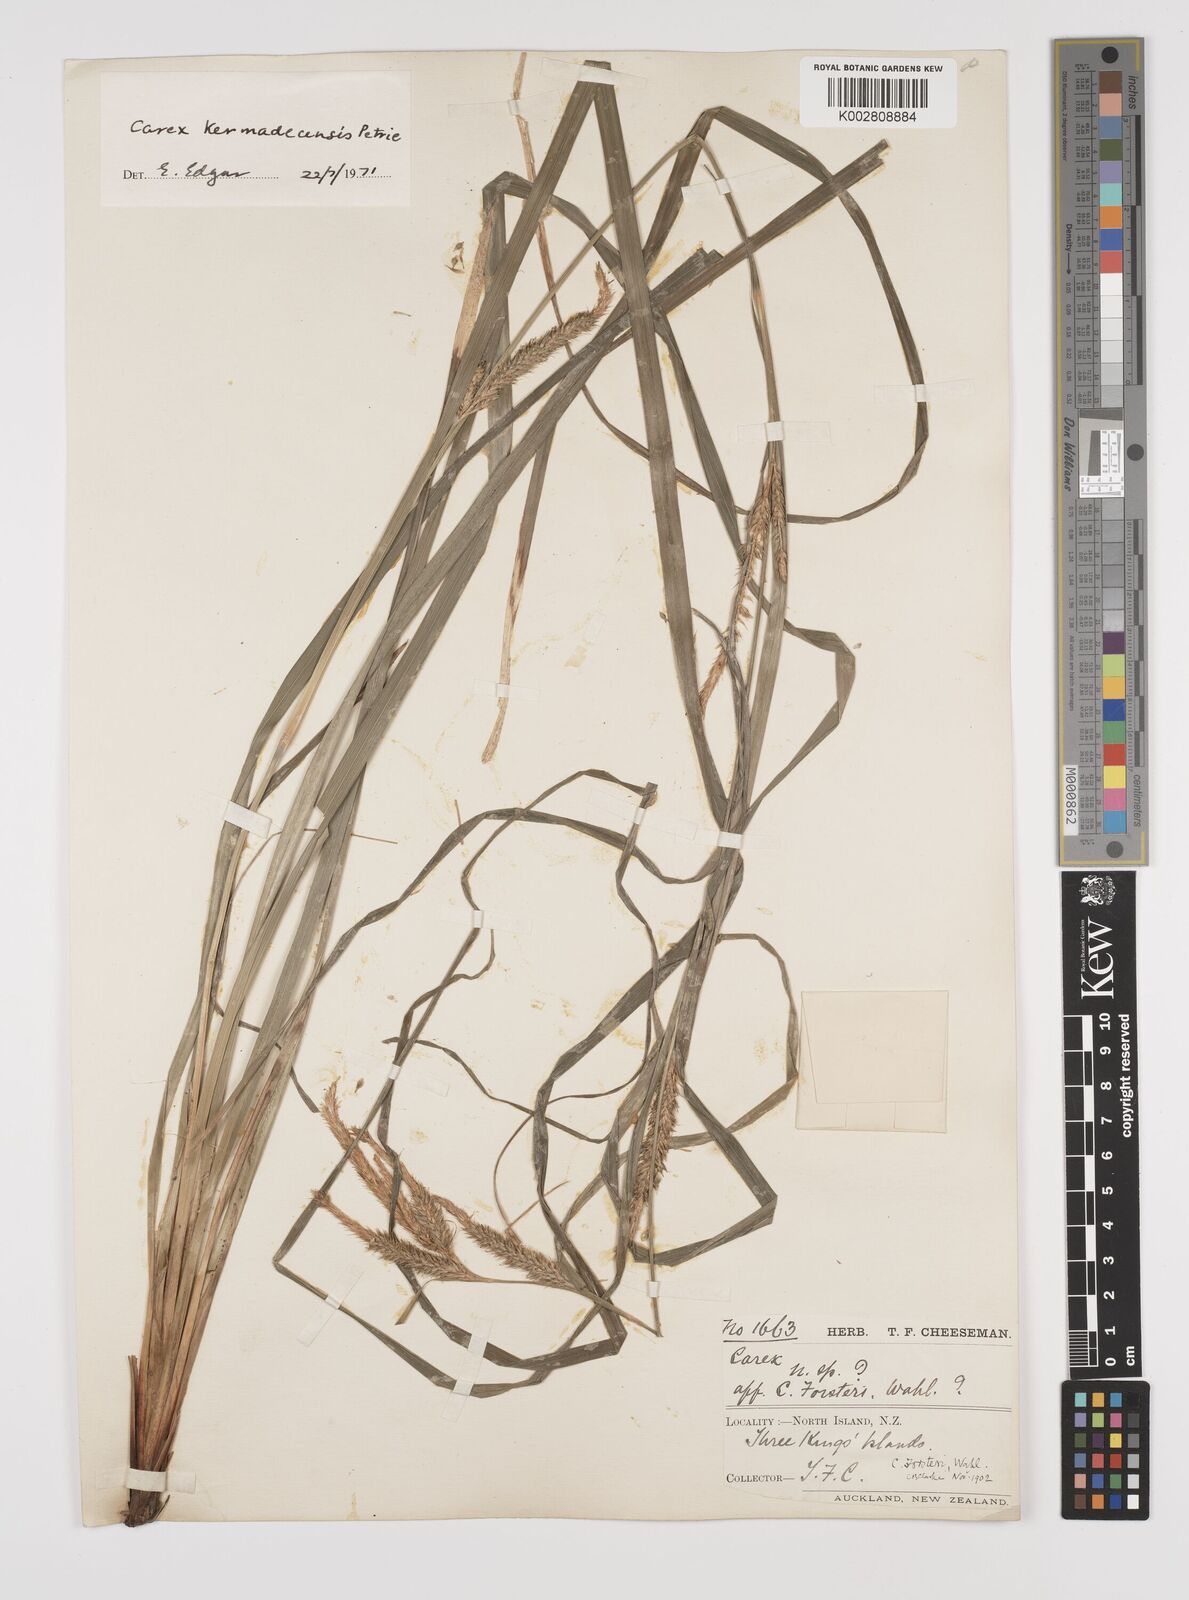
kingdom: Plantae
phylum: Tracheophyta
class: Liliopsida
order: Poales
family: Cyperaceae
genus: Carex
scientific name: Carex forsteri
